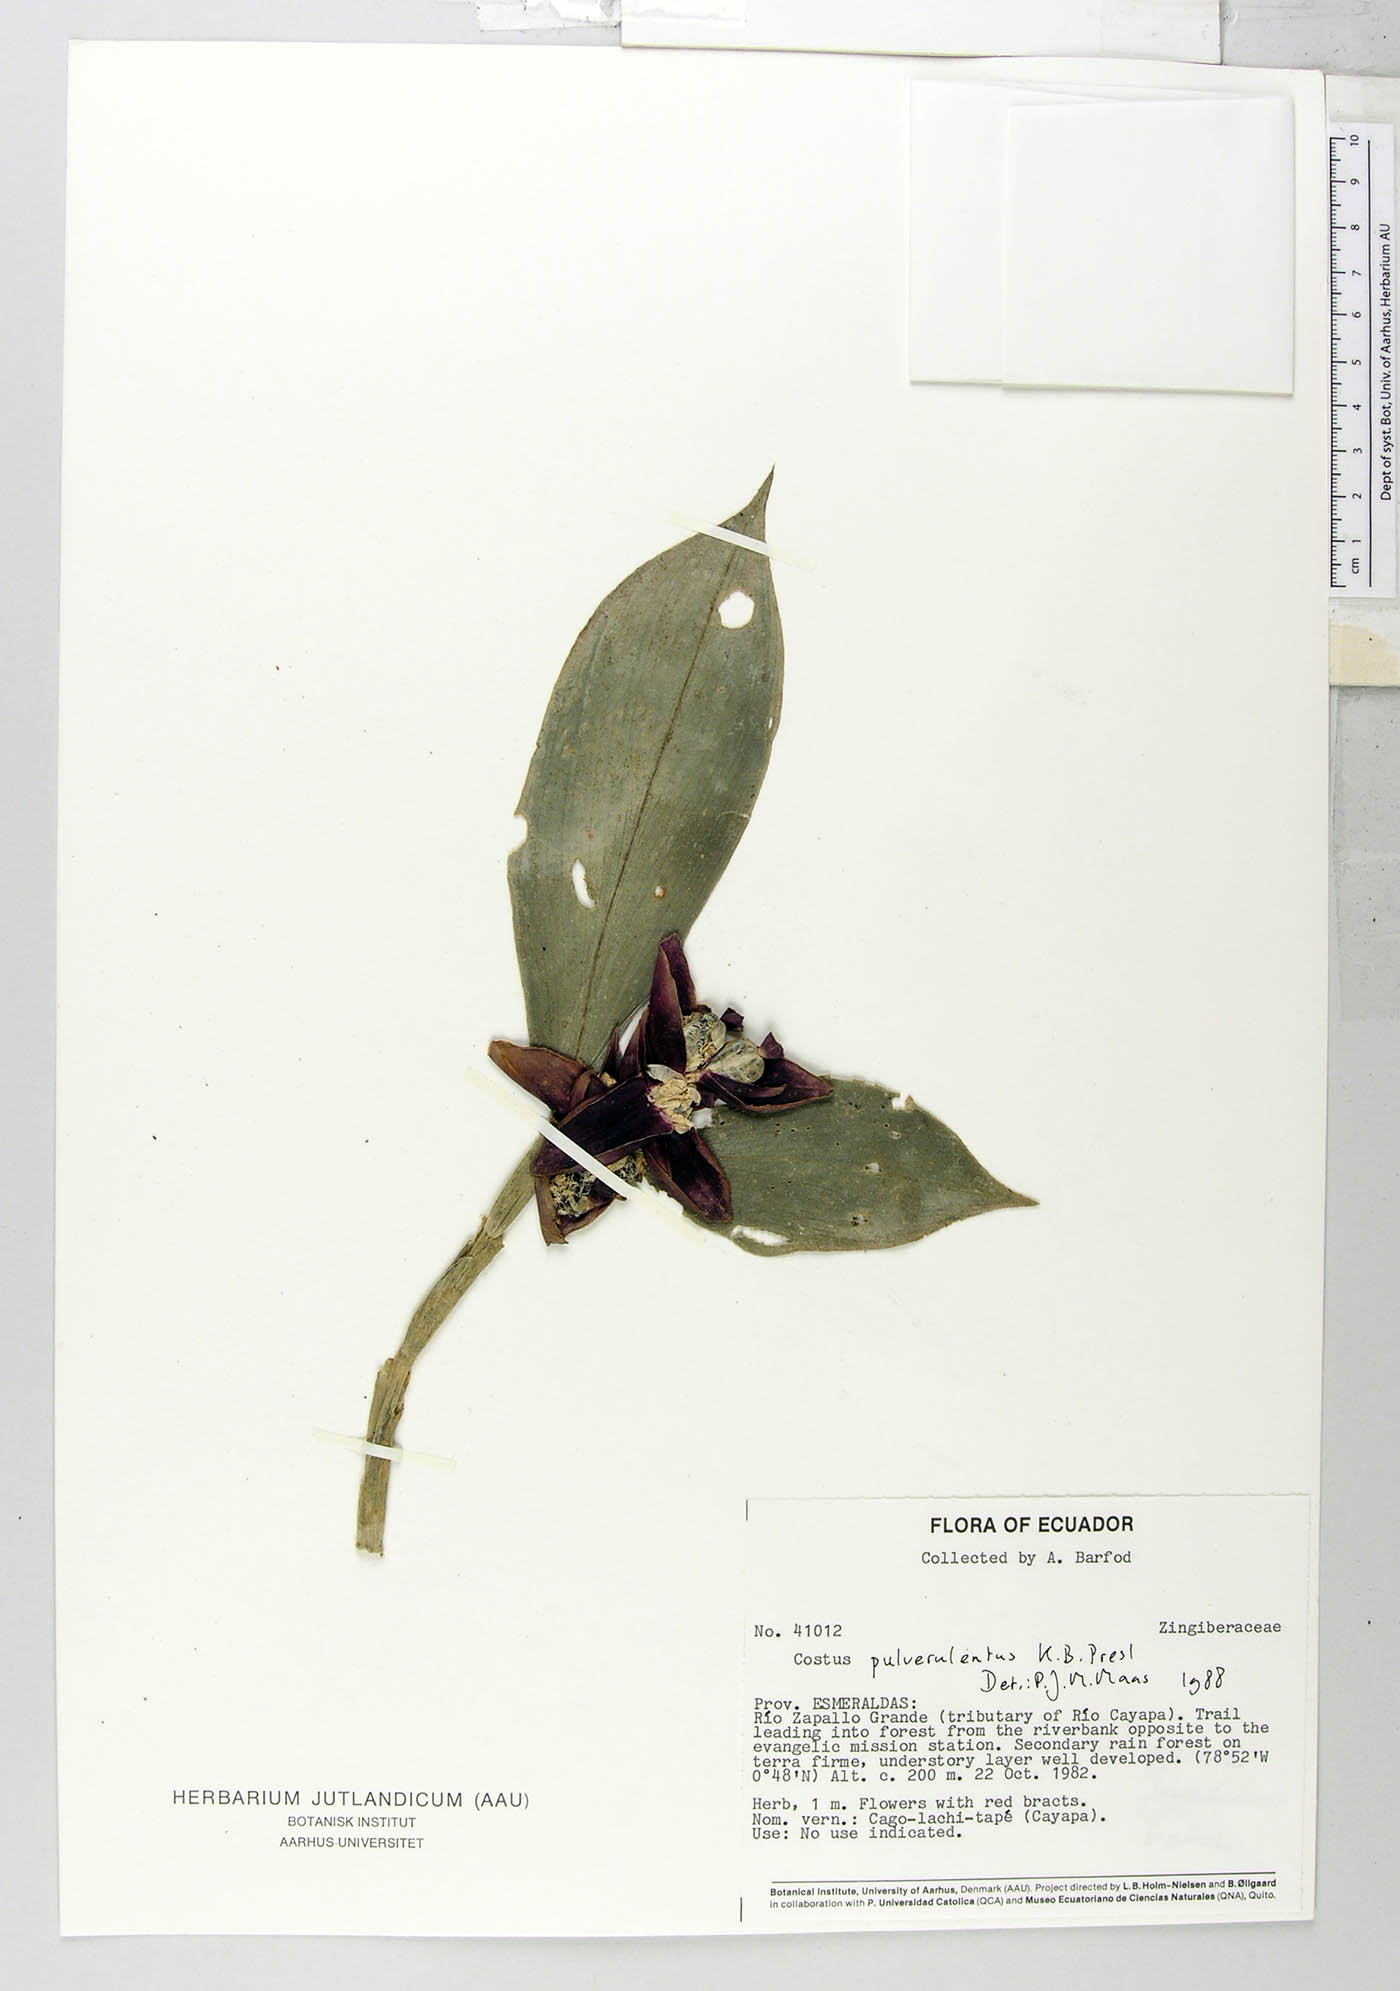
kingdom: Plantae
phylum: Tracheophyta
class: Liliopsida
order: Zingiberales
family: Costaceae
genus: Costus
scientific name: Costus pulverulentus
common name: Spiral ginger
